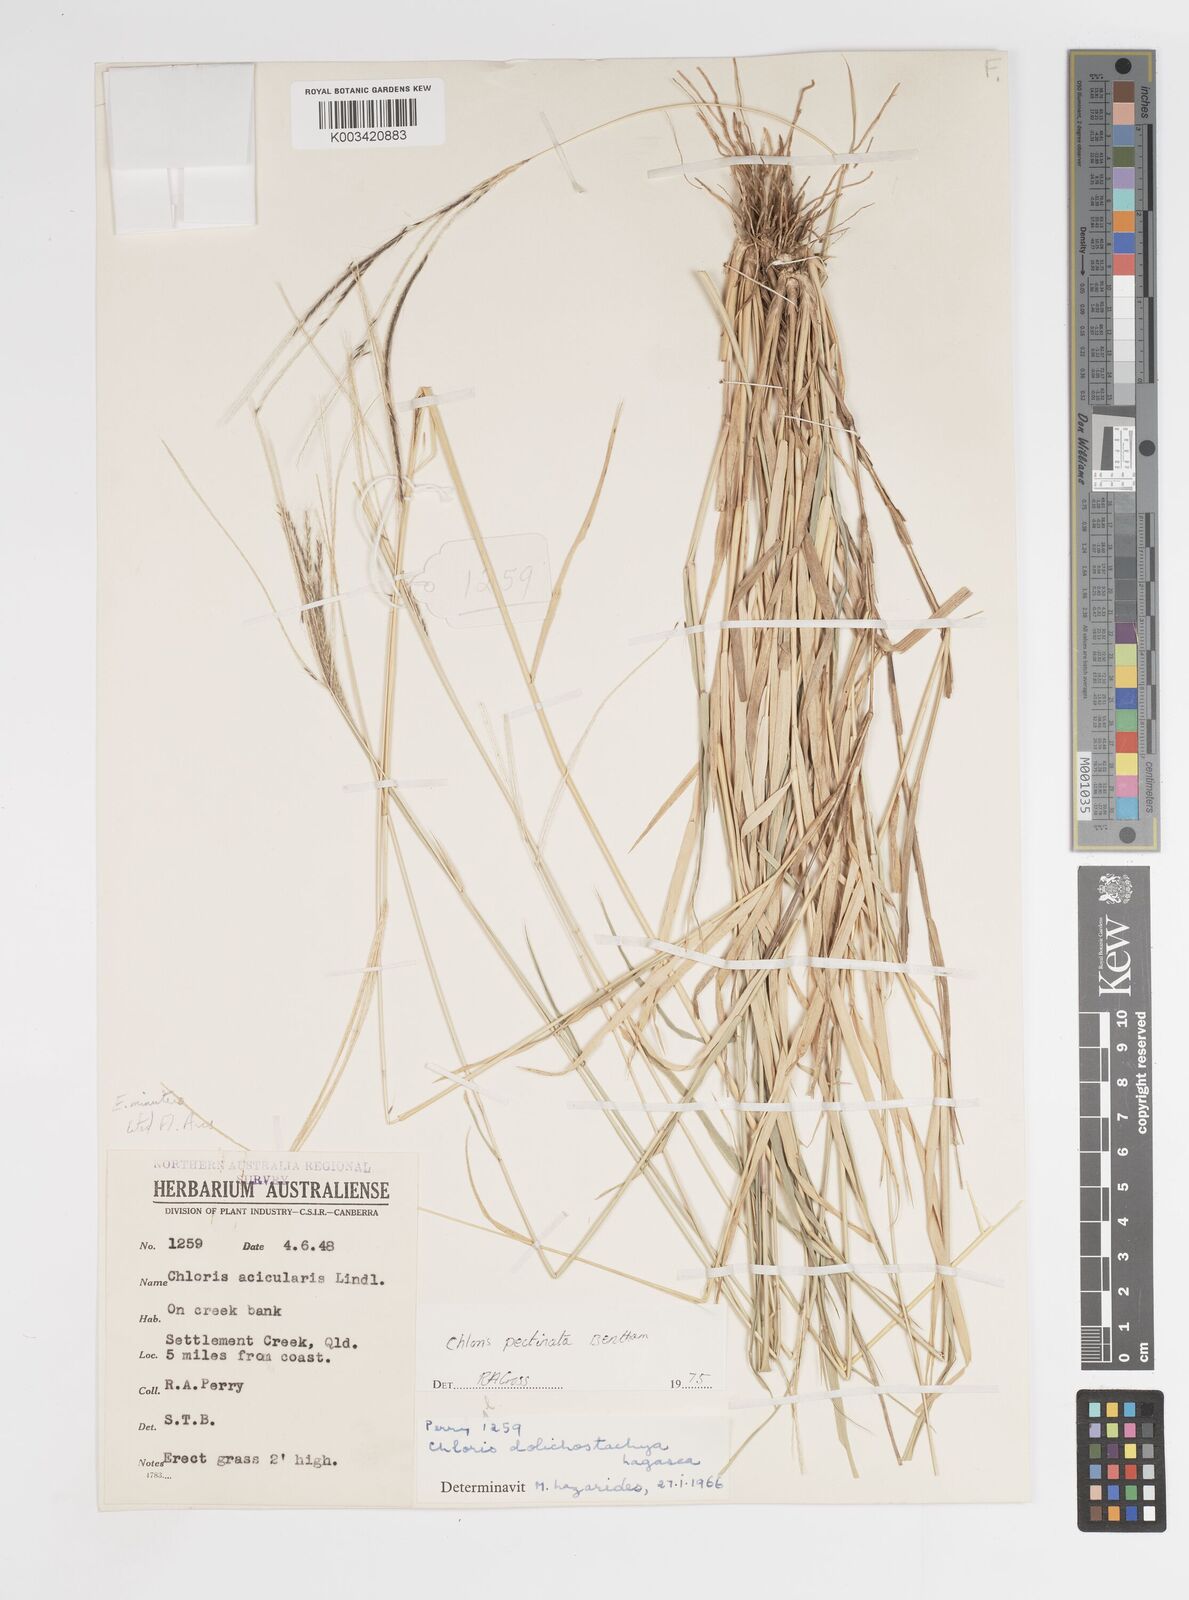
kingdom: Plantae
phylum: Tracheophyta
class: Liliopsida
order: Poales
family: Poaceae
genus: Enteropogon
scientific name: Enteropogon minutus
